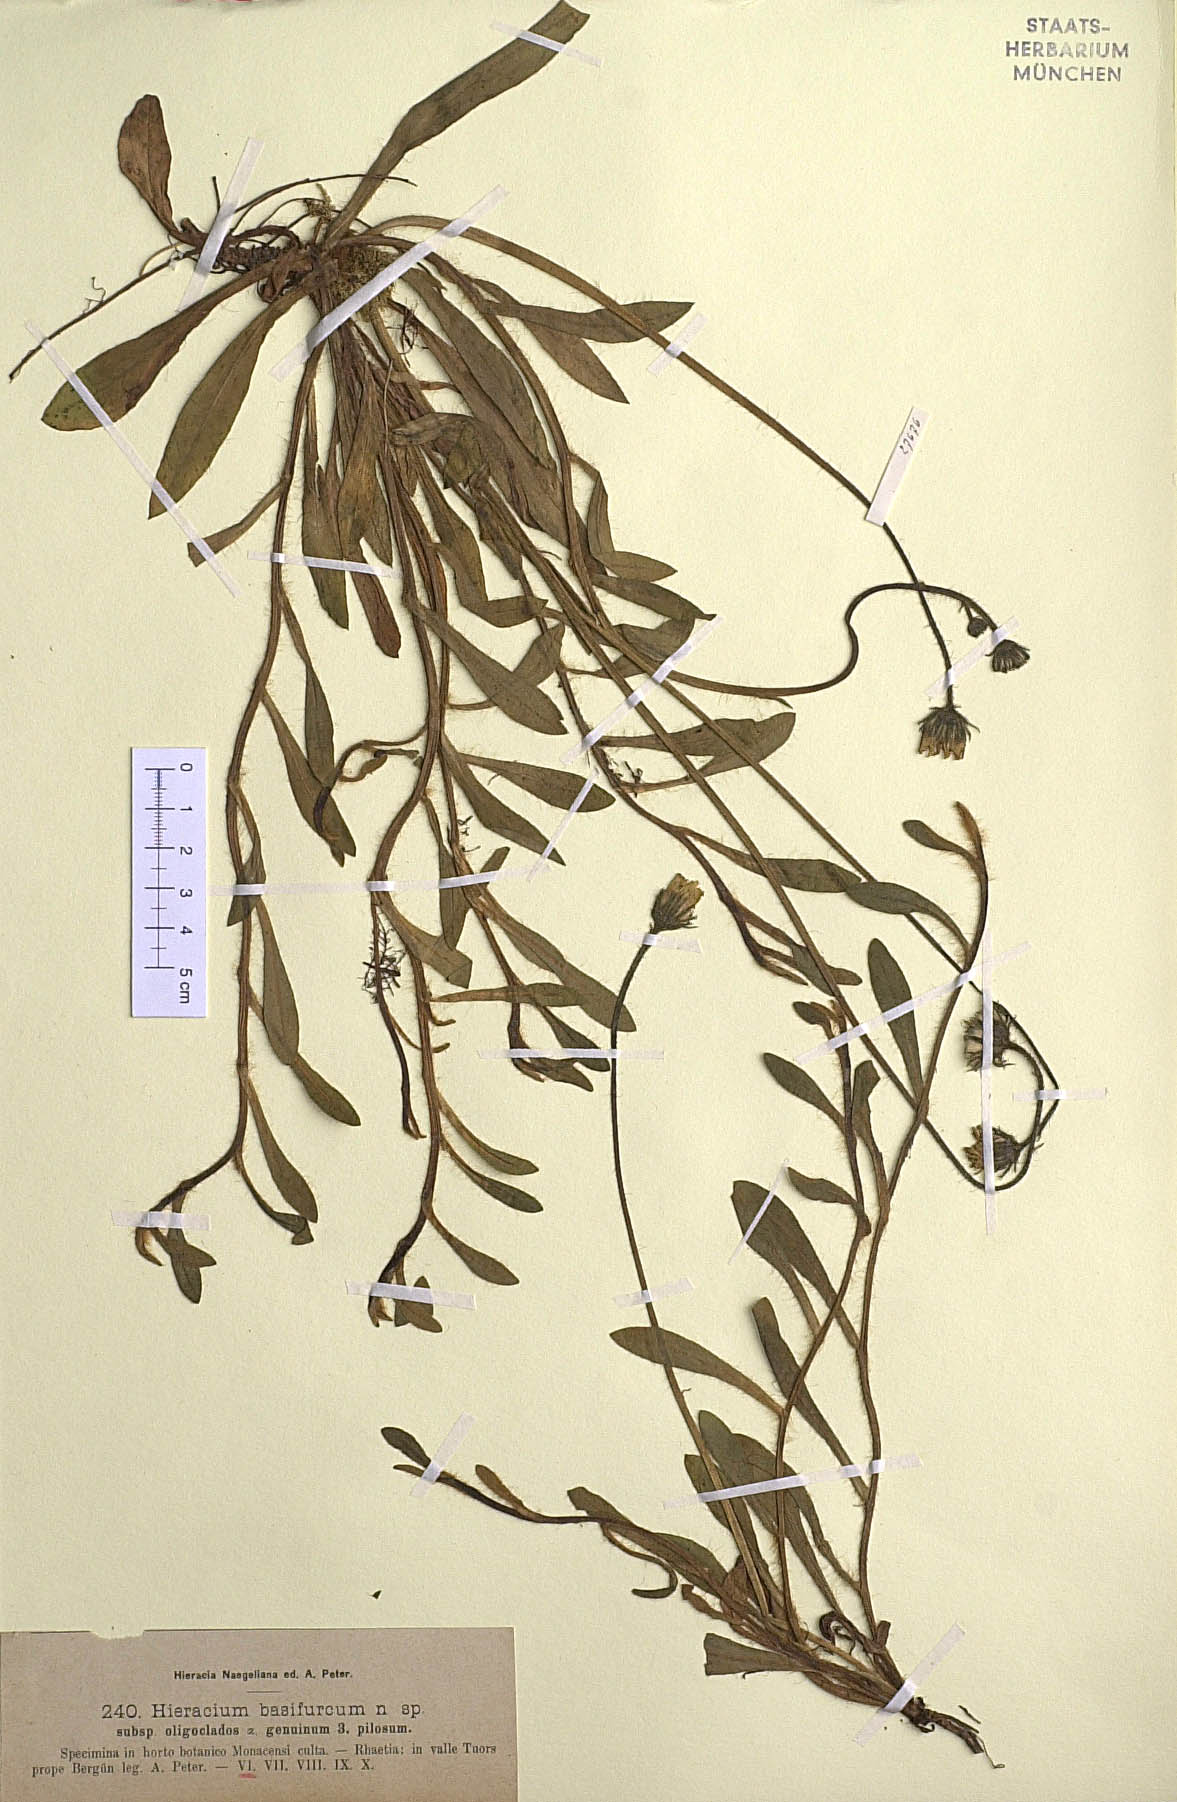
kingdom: Plantae
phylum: Tracheophyta
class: Magnoliopsida
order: Asterales
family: Asteraceae
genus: Pilosella
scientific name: Pilosella basifurca
